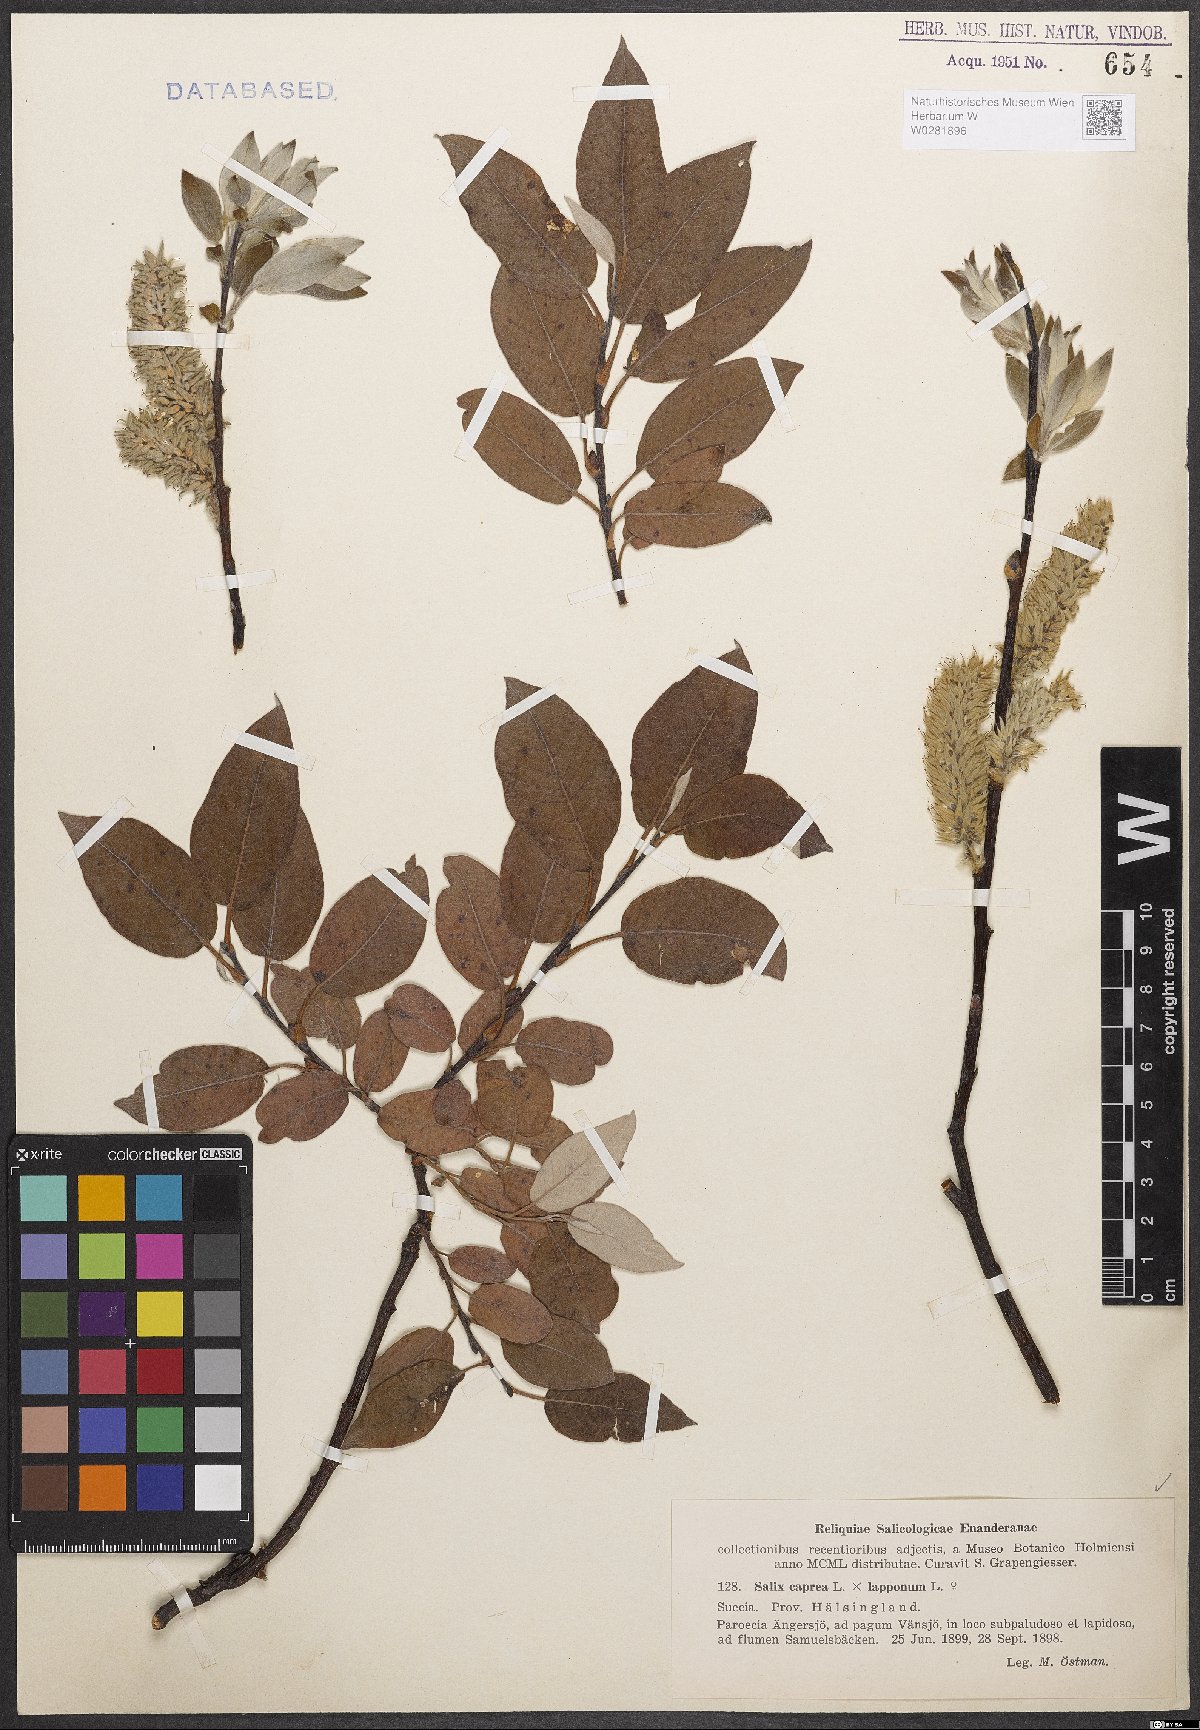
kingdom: Plantae
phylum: Tracheophyta
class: Magnoliopsida
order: Malpighiales
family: Salicaceae
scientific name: Salicaceae
